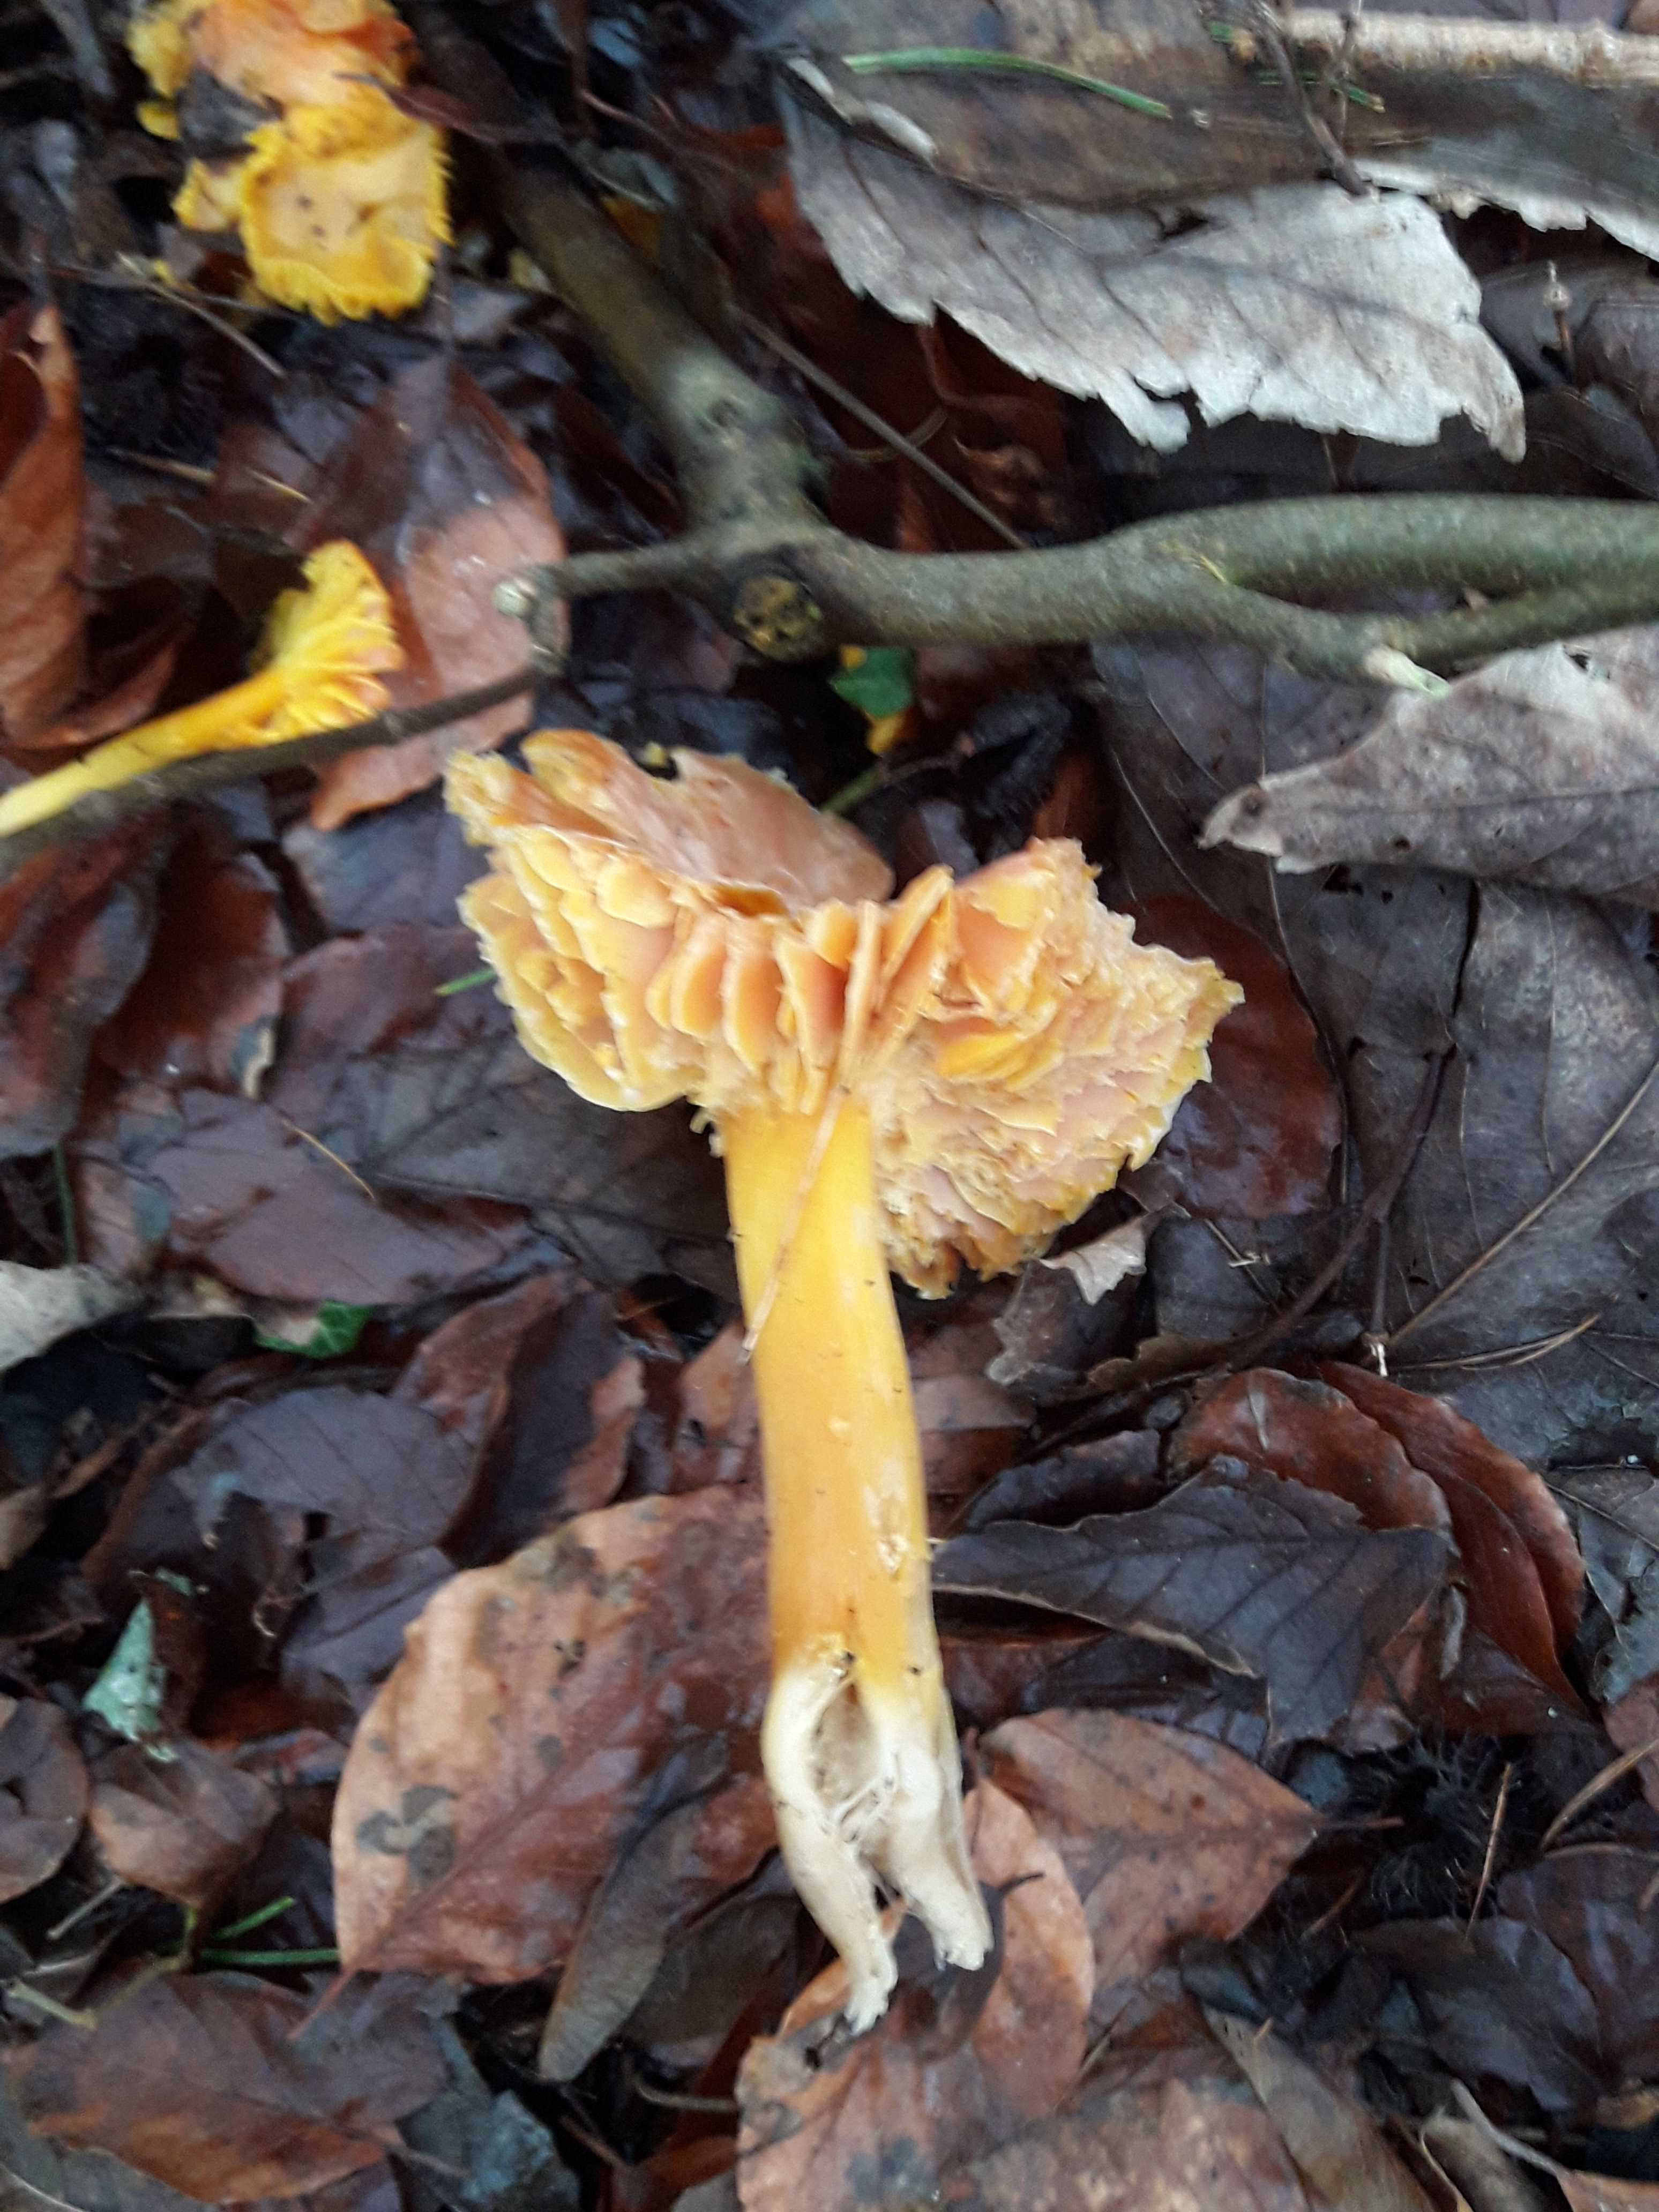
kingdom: Fungi
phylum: Basidiomycota
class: Agaricomycetes
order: Agaricales
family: Hygrophoraceae
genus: Hygrocybe
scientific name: Hygrocybe
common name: vokshat
